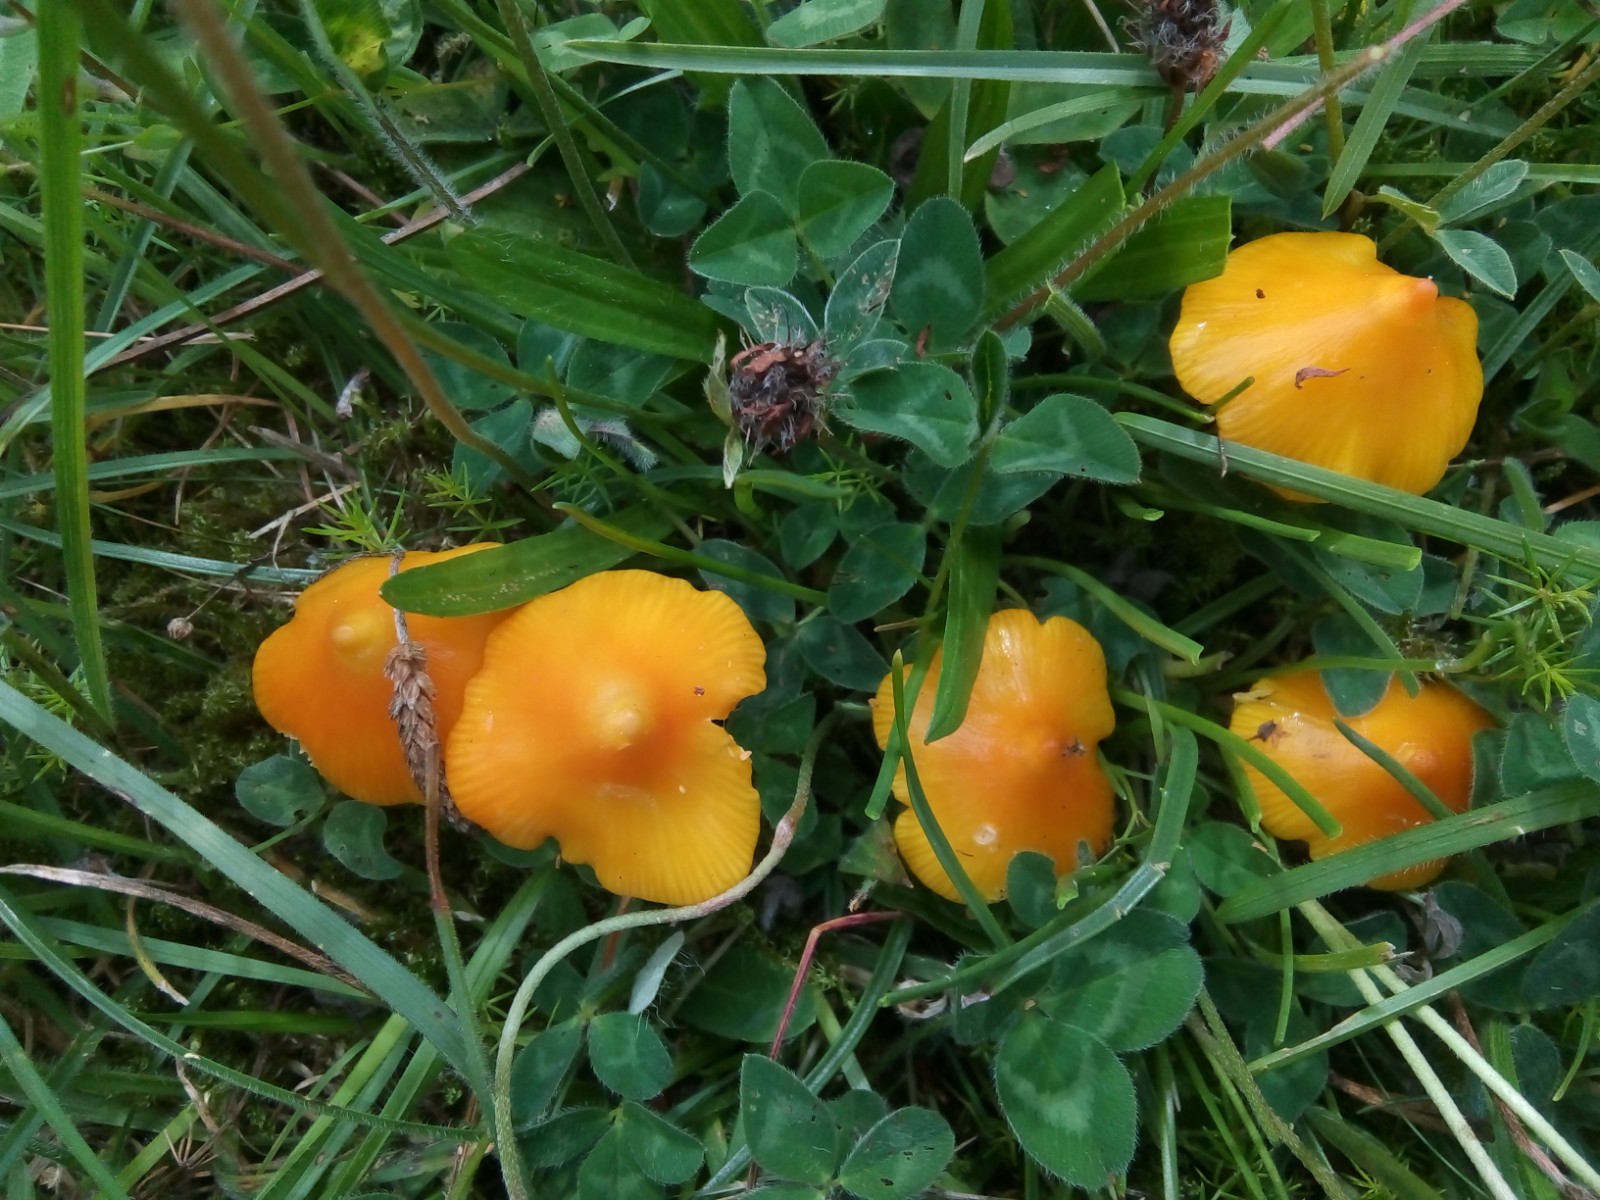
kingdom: Fungi
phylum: Basidiomycota
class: Agaricomycetes
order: Agaricales
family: Hygrophoraceae
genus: Hygrocybe
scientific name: Hygrocybe acutoconica
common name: spidspuklet vokshat
